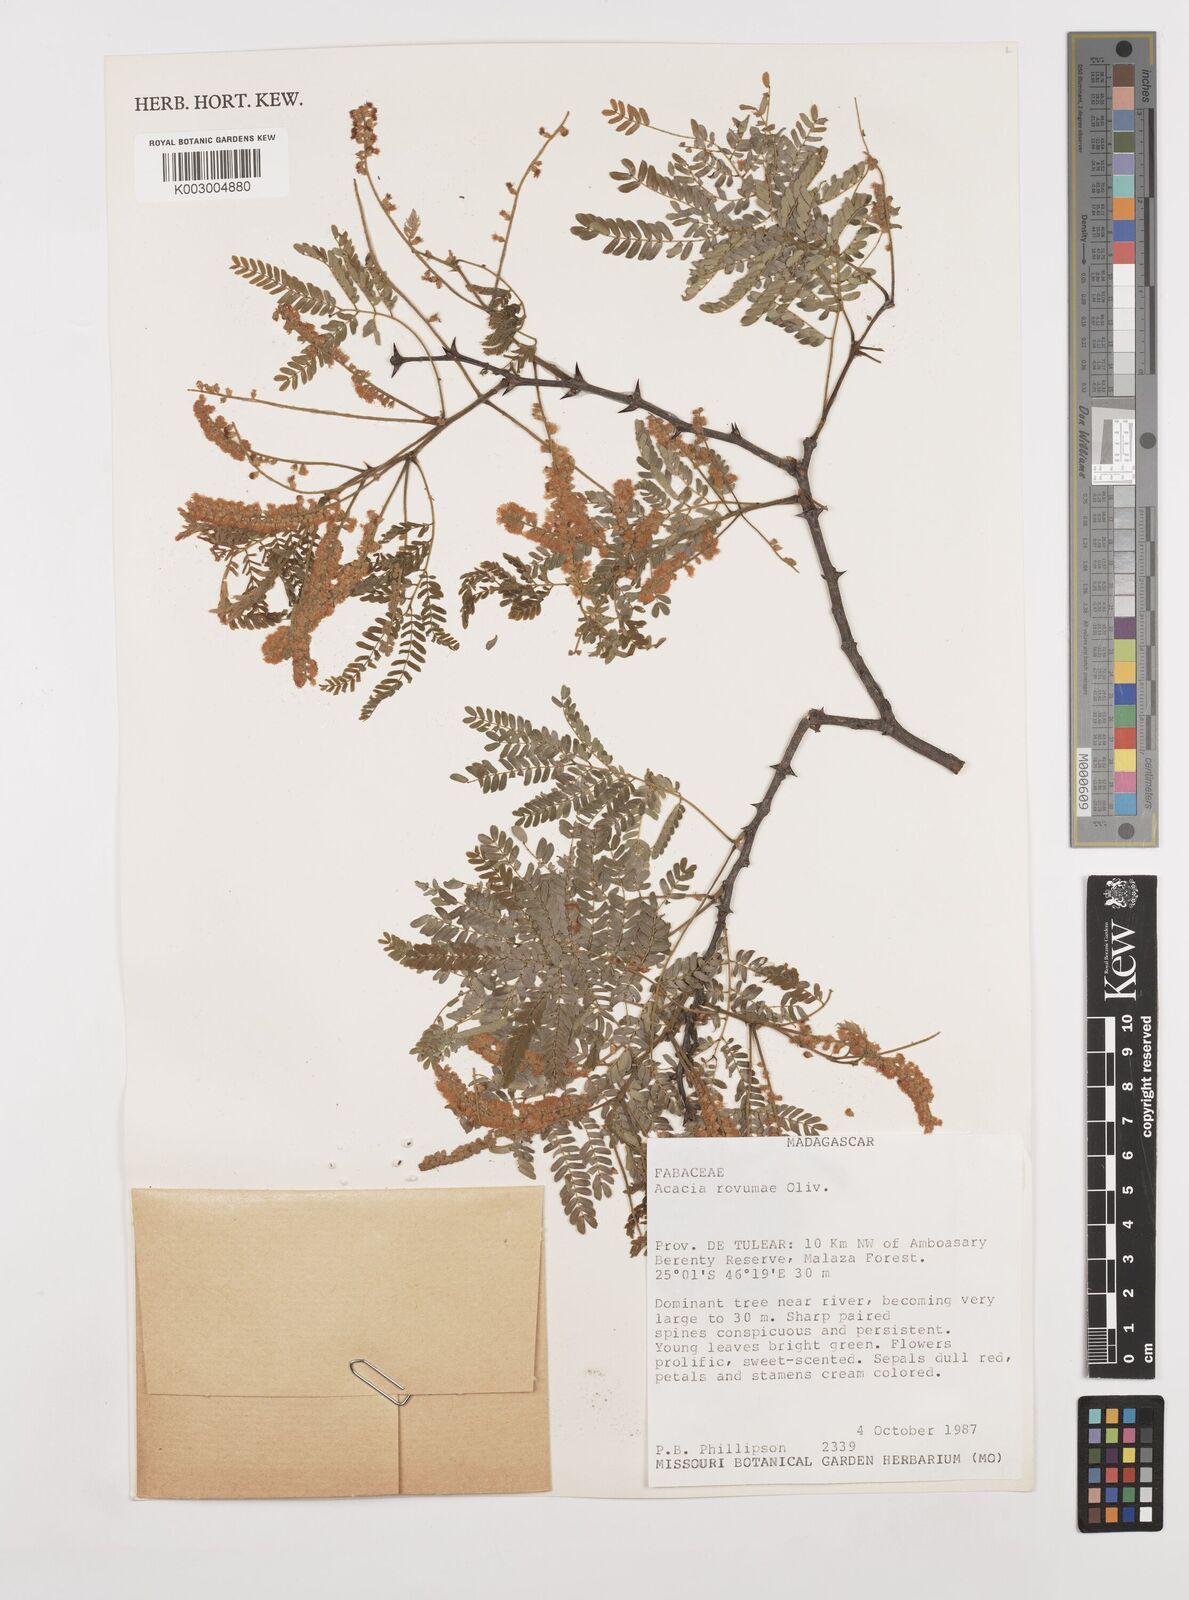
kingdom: Plantae
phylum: Tracheophyta
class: Magnoliopsida
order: Fabales
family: Fabaceae
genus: Senegalia
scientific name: Senegalia rovumae
